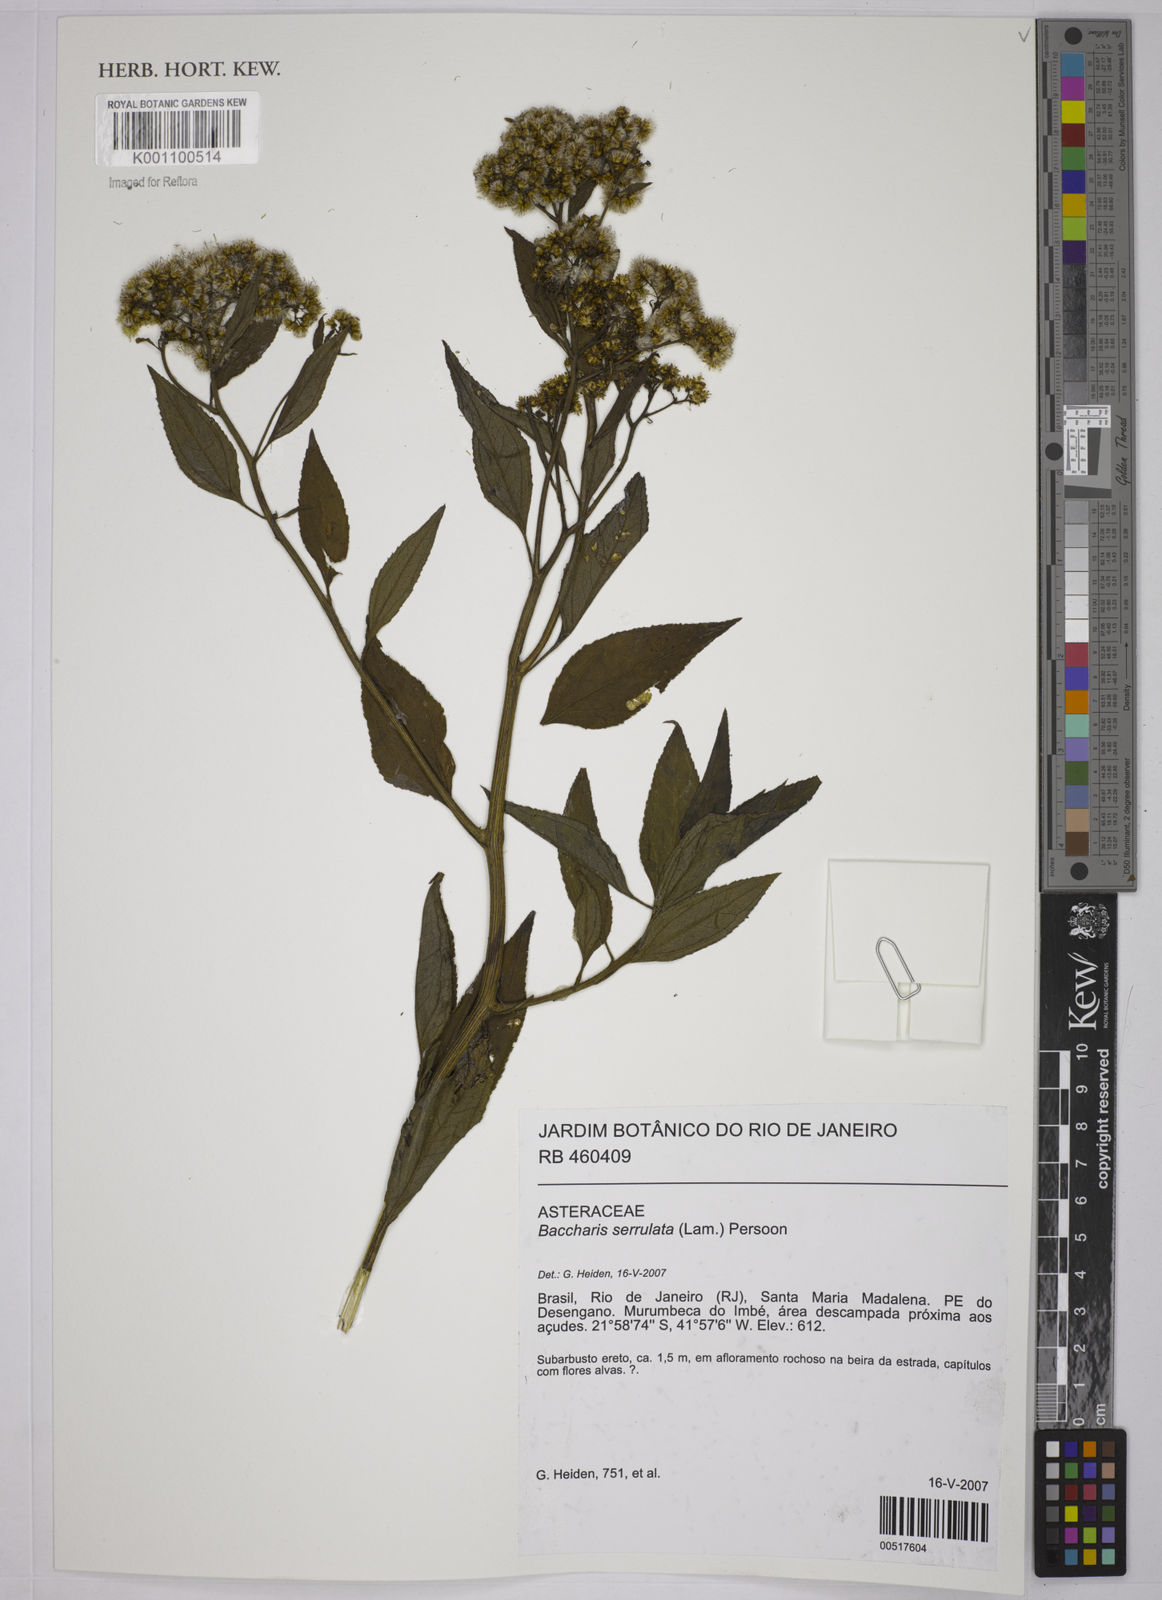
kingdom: Plantae
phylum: Tracheophyta
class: Magnoliopsida
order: Asterales
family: Asteraceae
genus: Baccharis
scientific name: Baccharis serrulata
